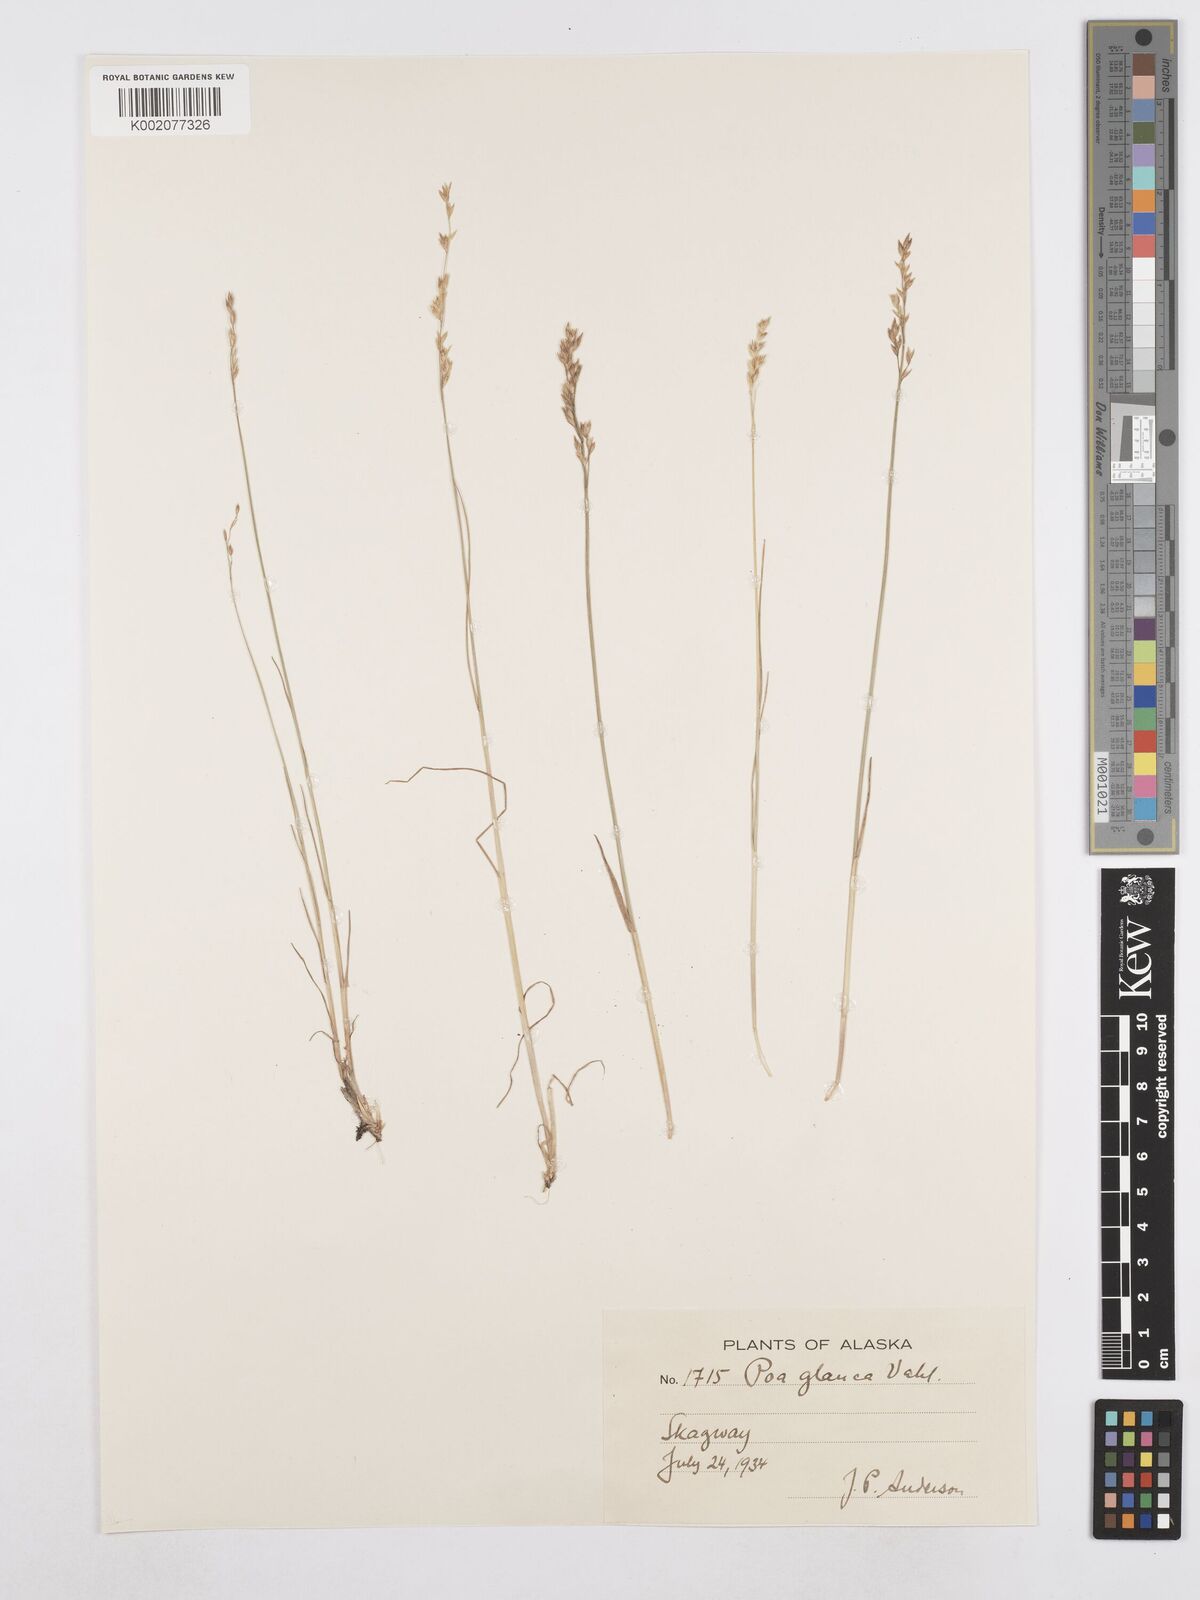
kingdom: Plantae
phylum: Tracheophyta
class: Liliopsida
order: Poales
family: Poaceae
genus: Poa
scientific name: Poa glauca
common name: Glaucous bluegrass
